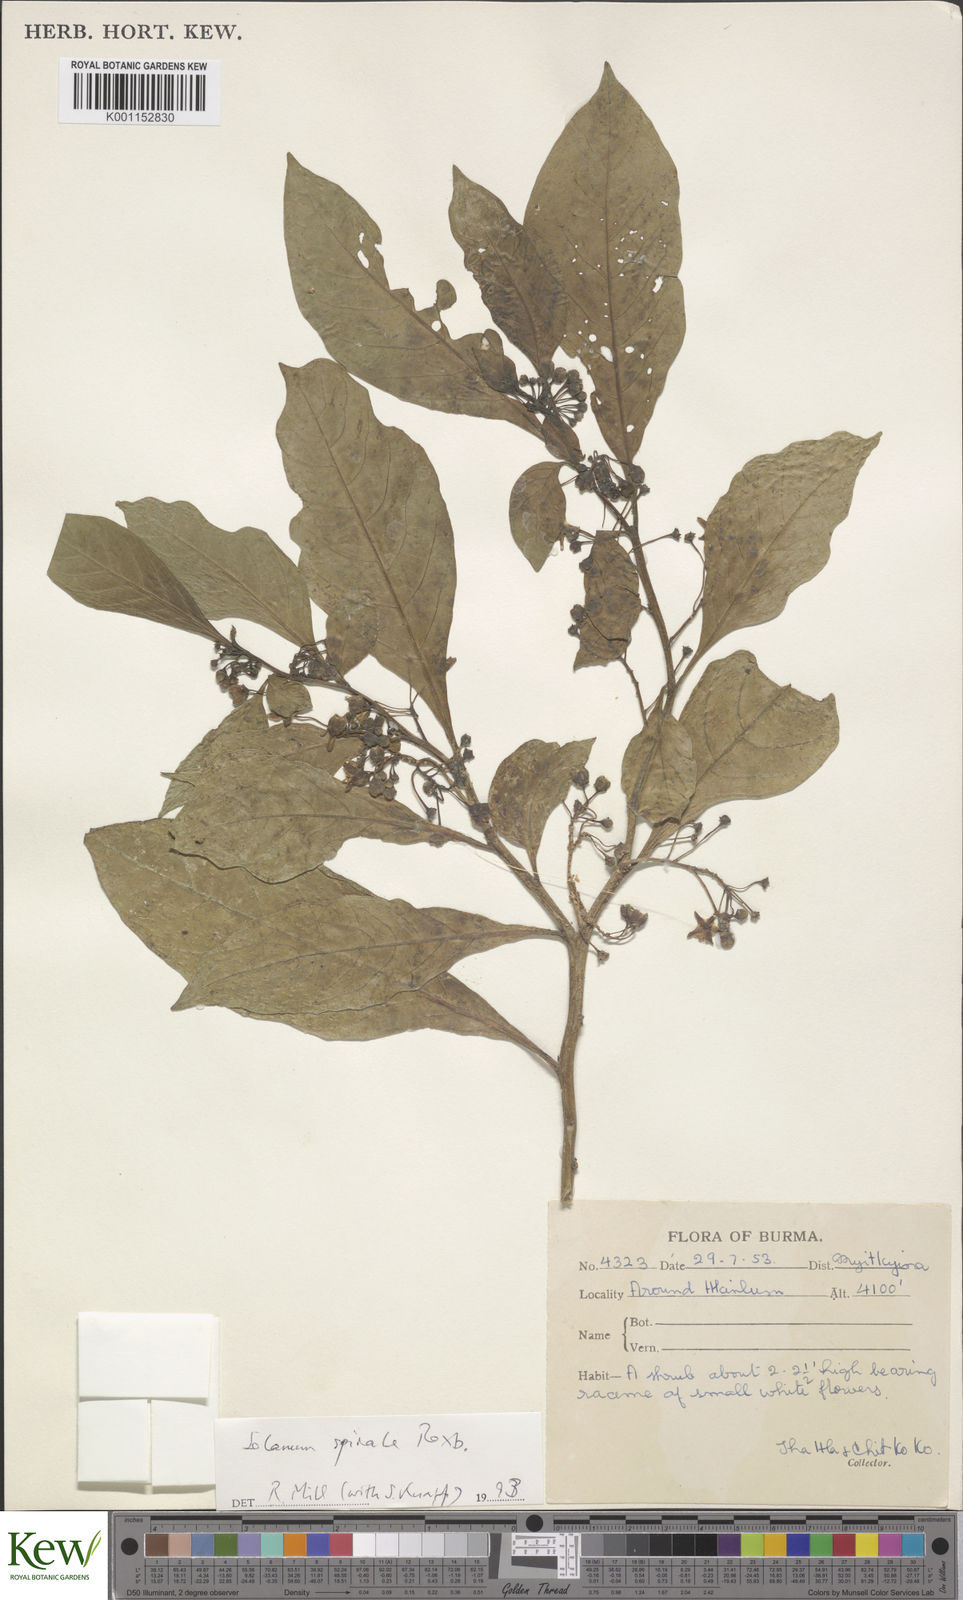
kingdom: Plantae
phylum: Tracheophyta
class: Magnoliopsida
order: Solanales
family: Solanaceae
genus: Solanum
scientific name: Solanum spirale
